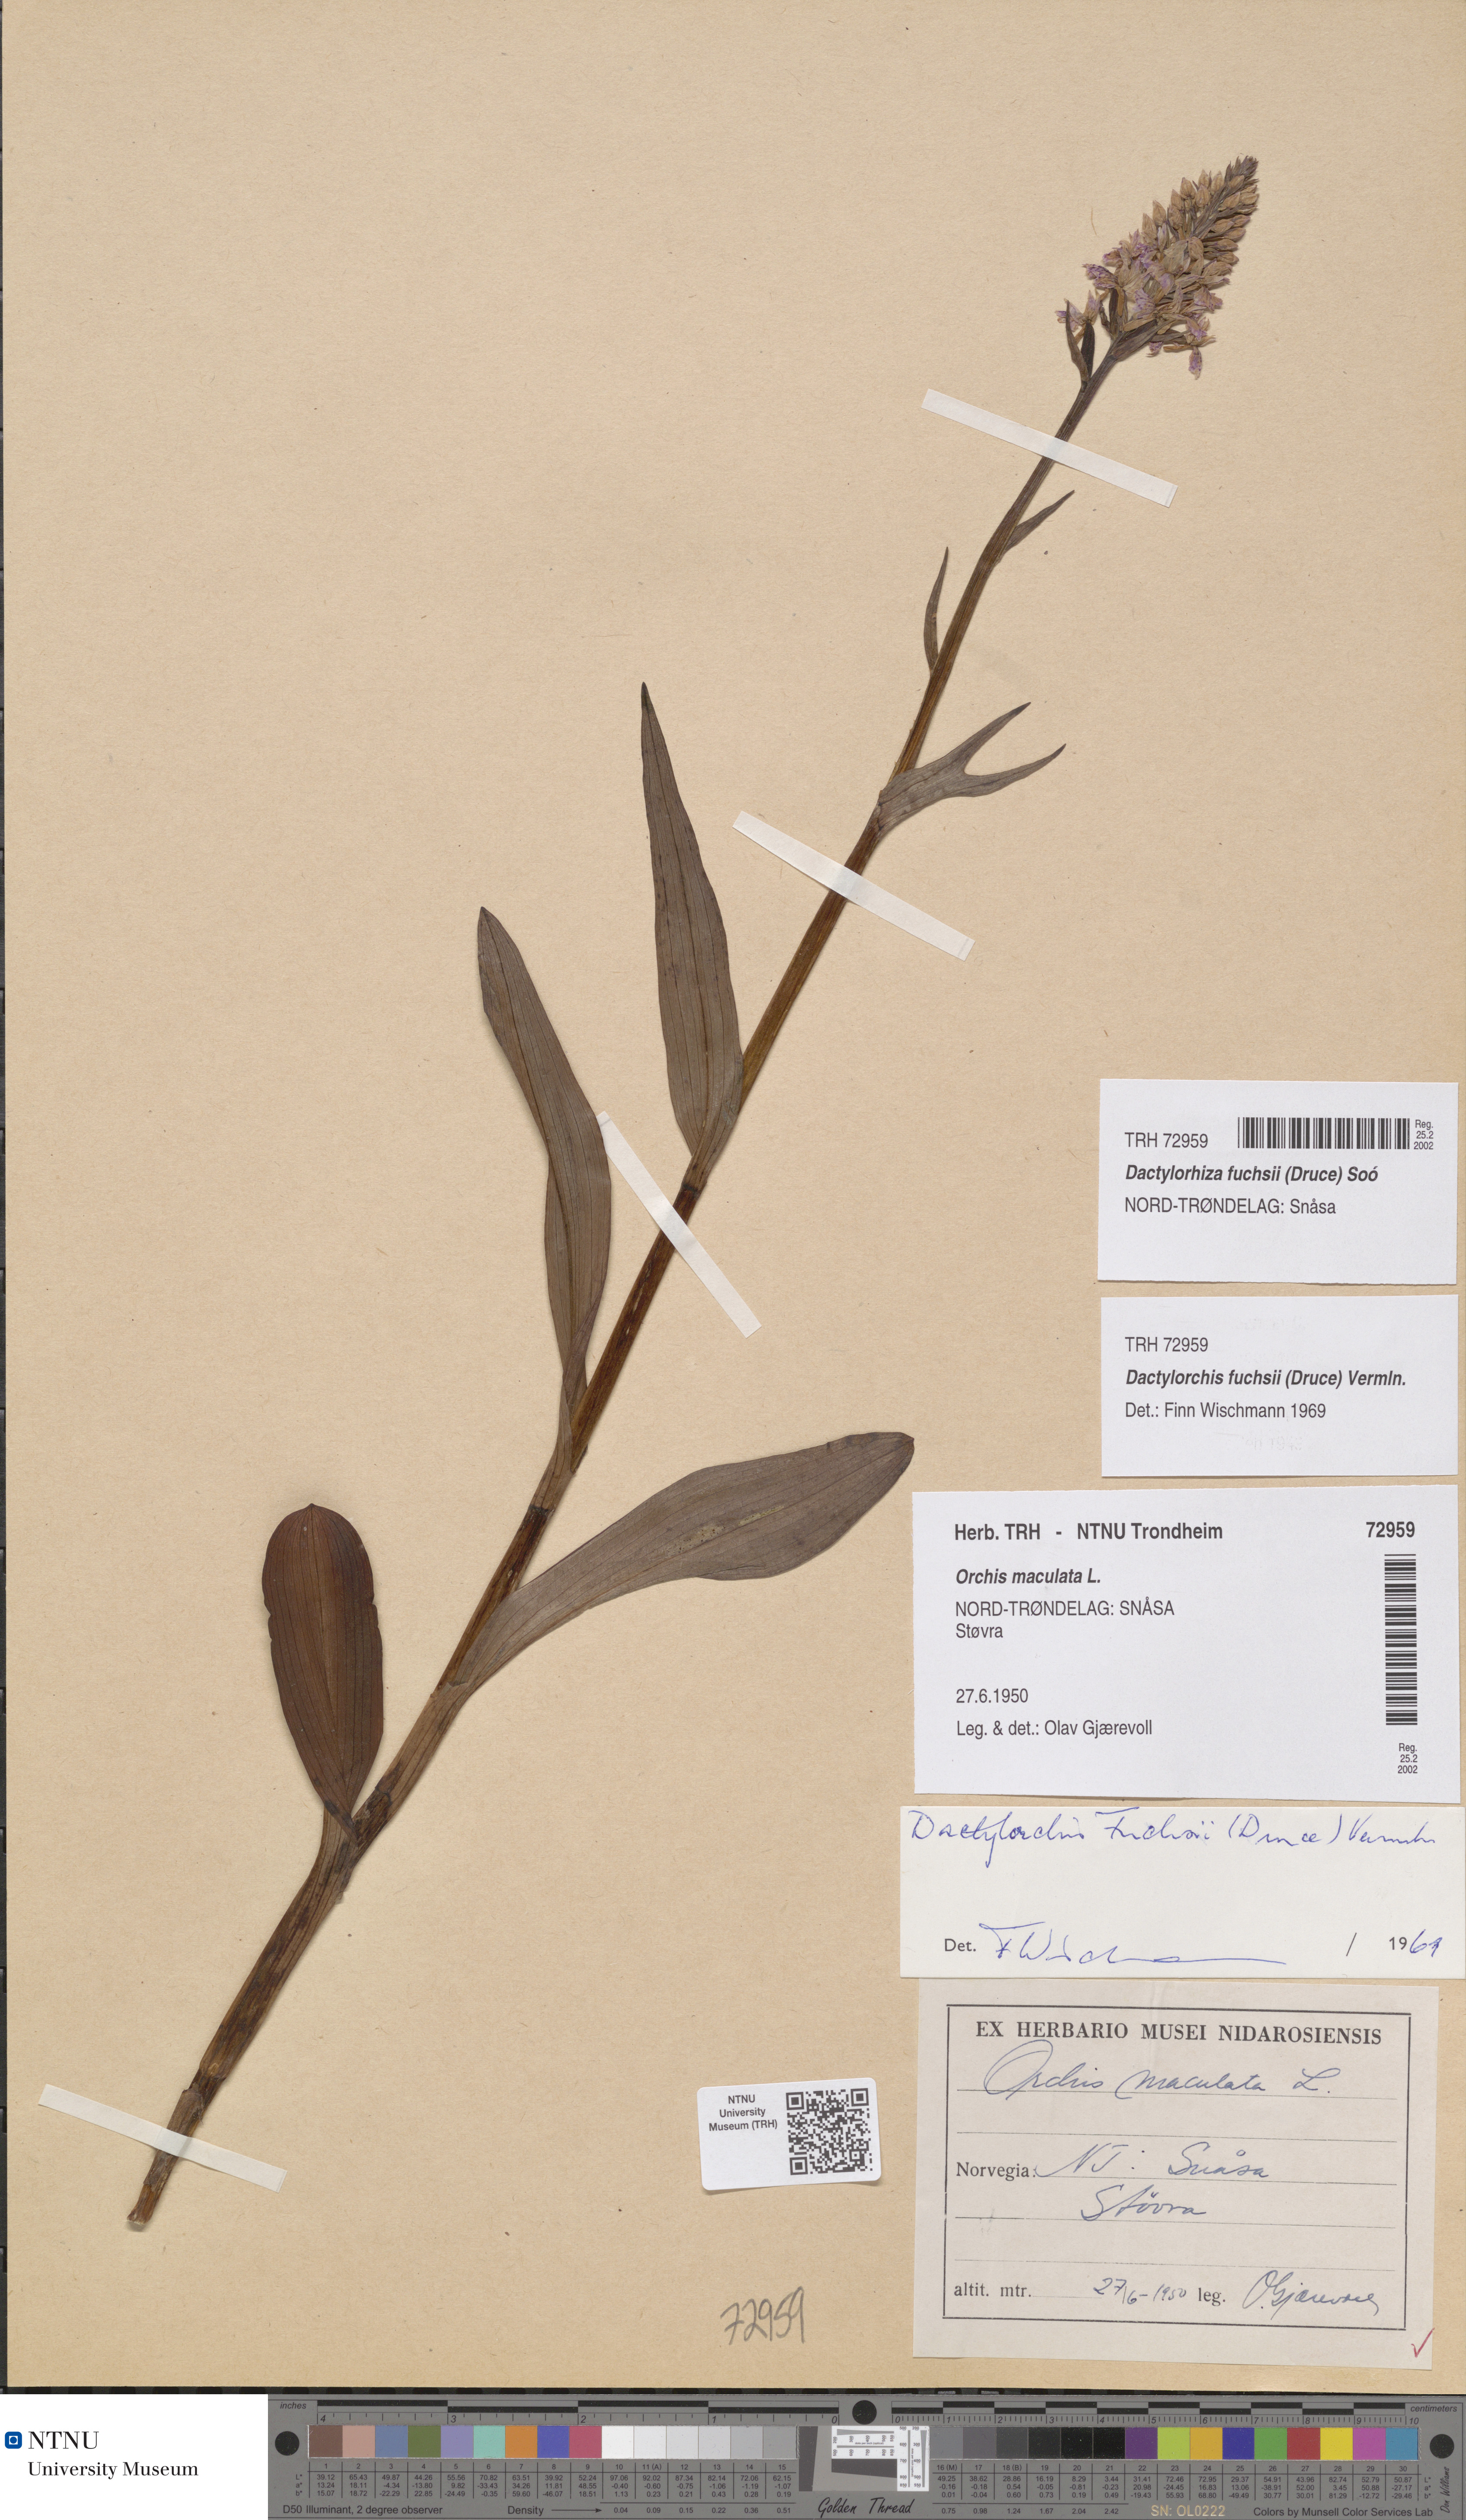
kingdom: Plantae
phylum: Tracheophyta
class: Liliopsida
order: Asparagales
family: Orchidaceae
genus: Dactylorhiza
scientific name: Dactylorhiza maculata
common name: Heath spotted-orchid
